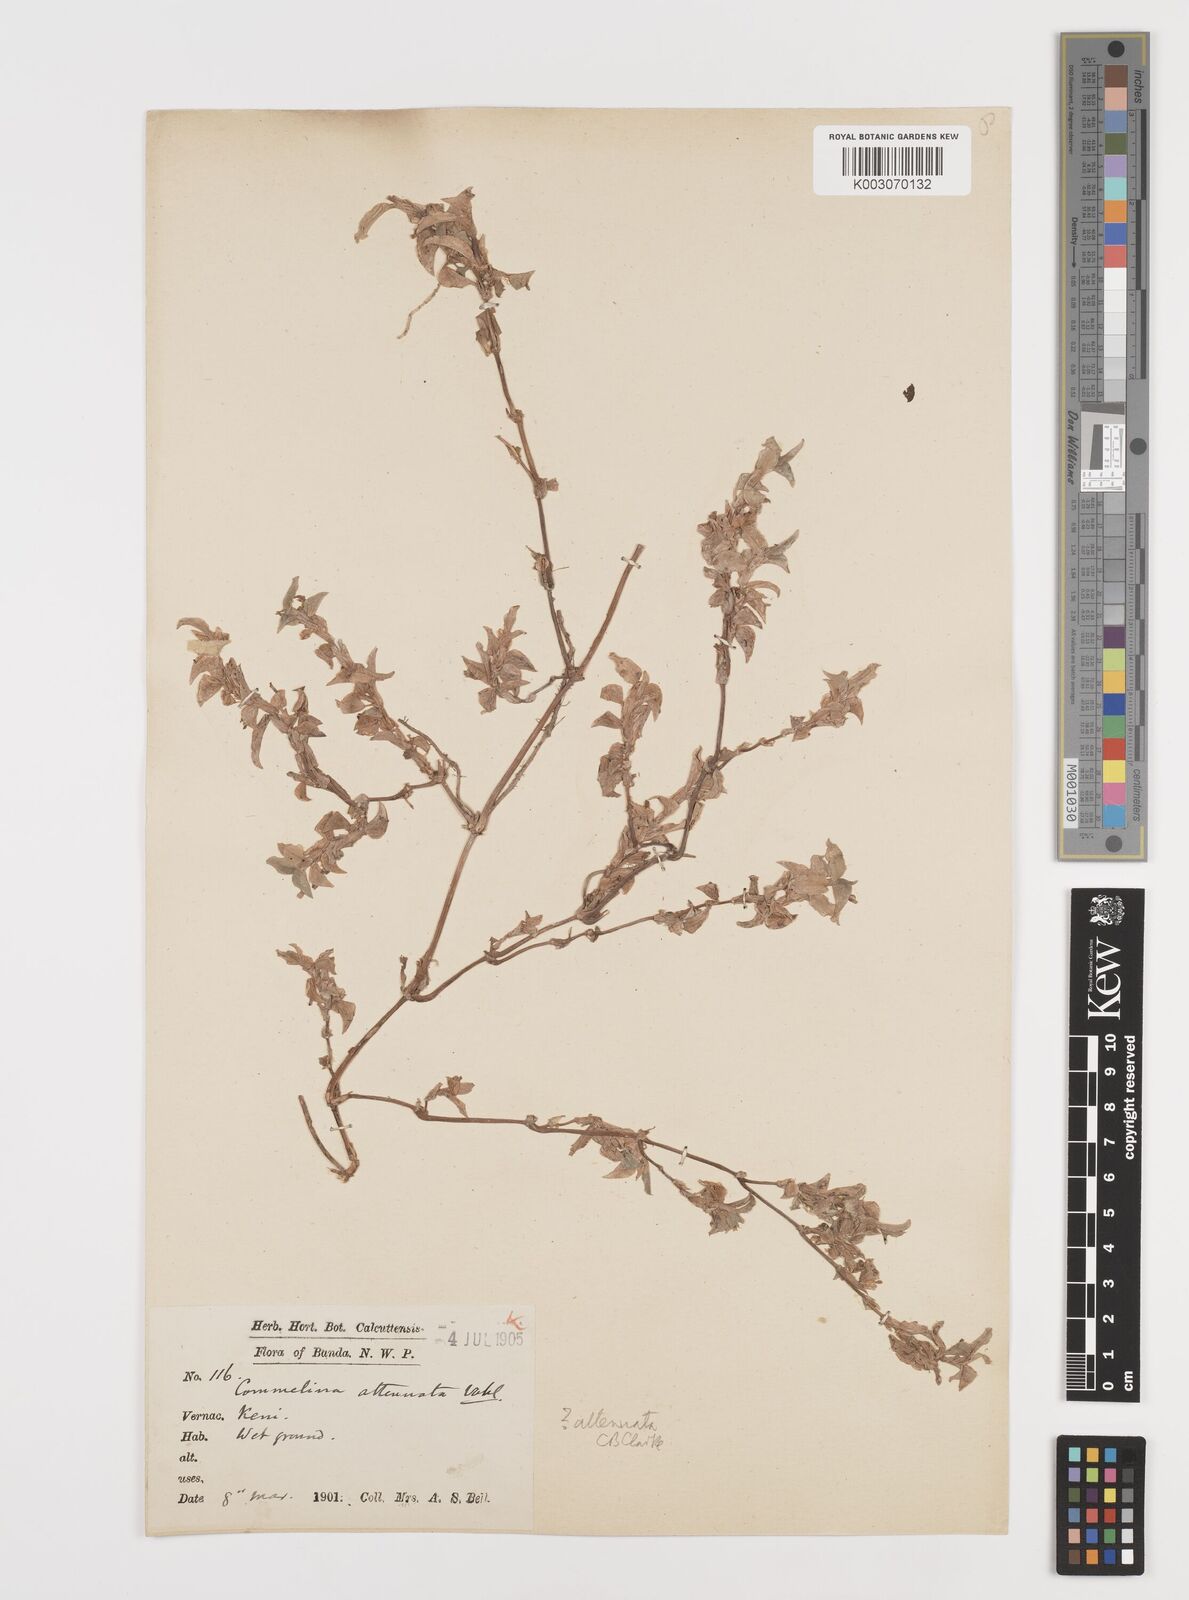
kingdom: Plantae
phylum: Tracheophyta
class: Liliopsida
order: Commelinales
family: Commelinaceae
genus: Commelina
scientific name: Commelina forskaolii
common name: Rat's ear
